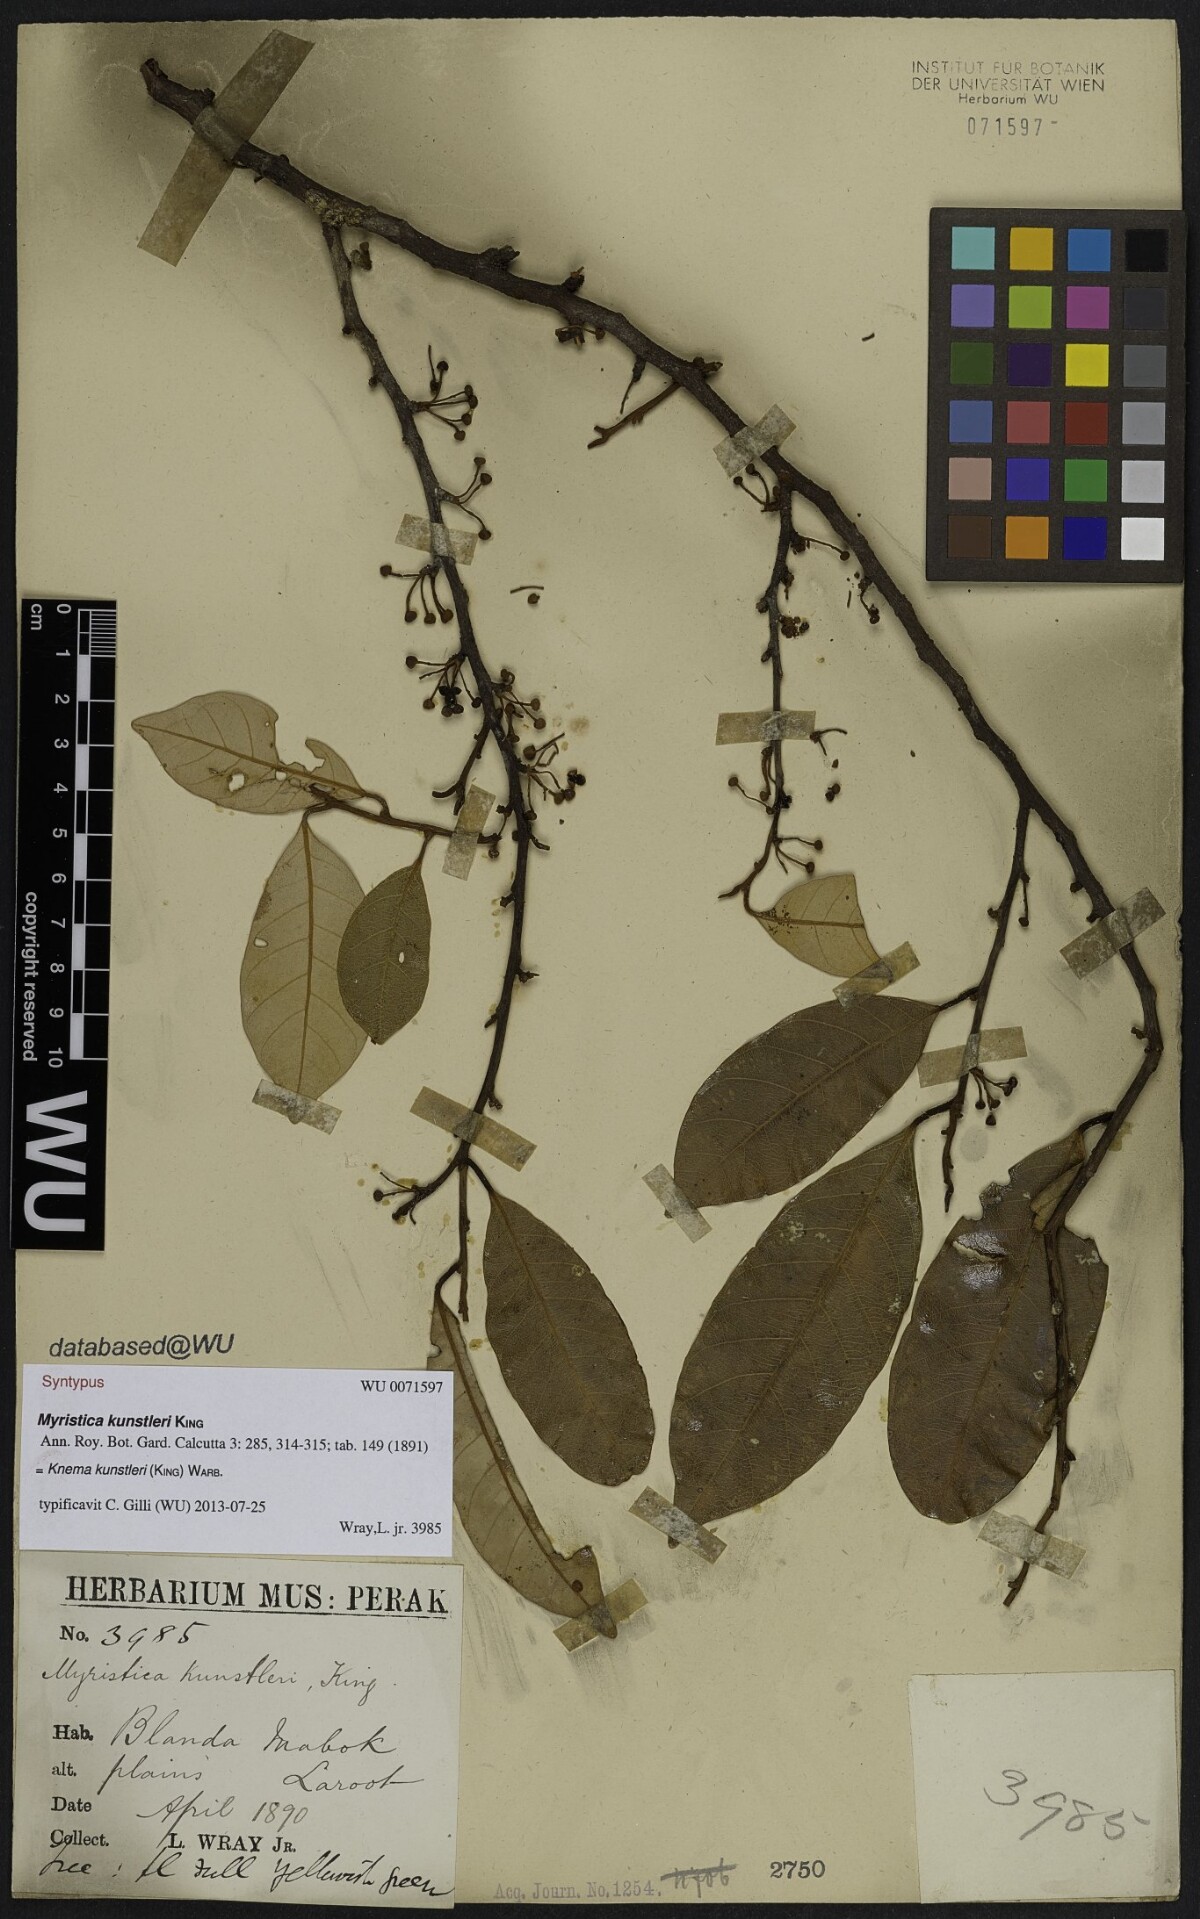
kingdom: Plantae
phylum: Tracheophyta
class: Magnoliopsida
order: Magnoliales
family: Myristicaceae
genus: Knema
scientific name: Knema kunstleri
